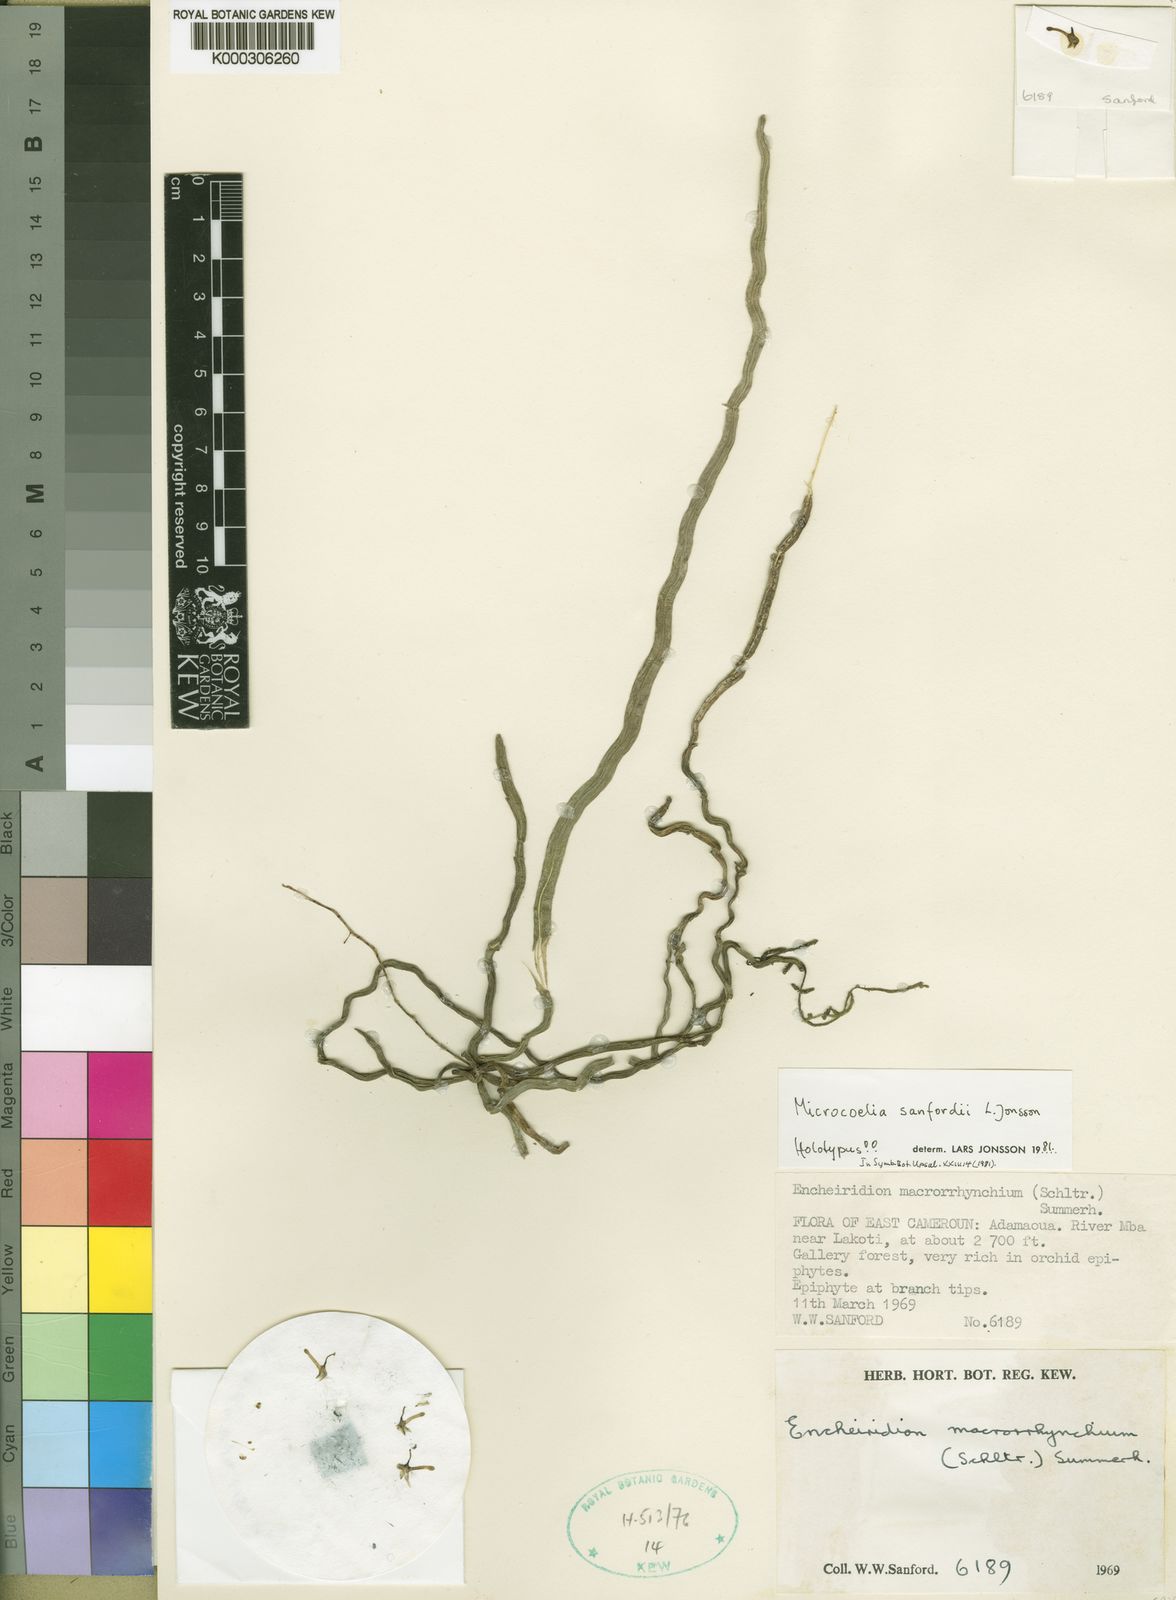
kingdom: Plantae
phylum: Tracheophyta
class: Liliopsida
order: Asparagales
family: Orchidaceae
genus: Microcoelia
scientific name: Microcoelia sanfordii
